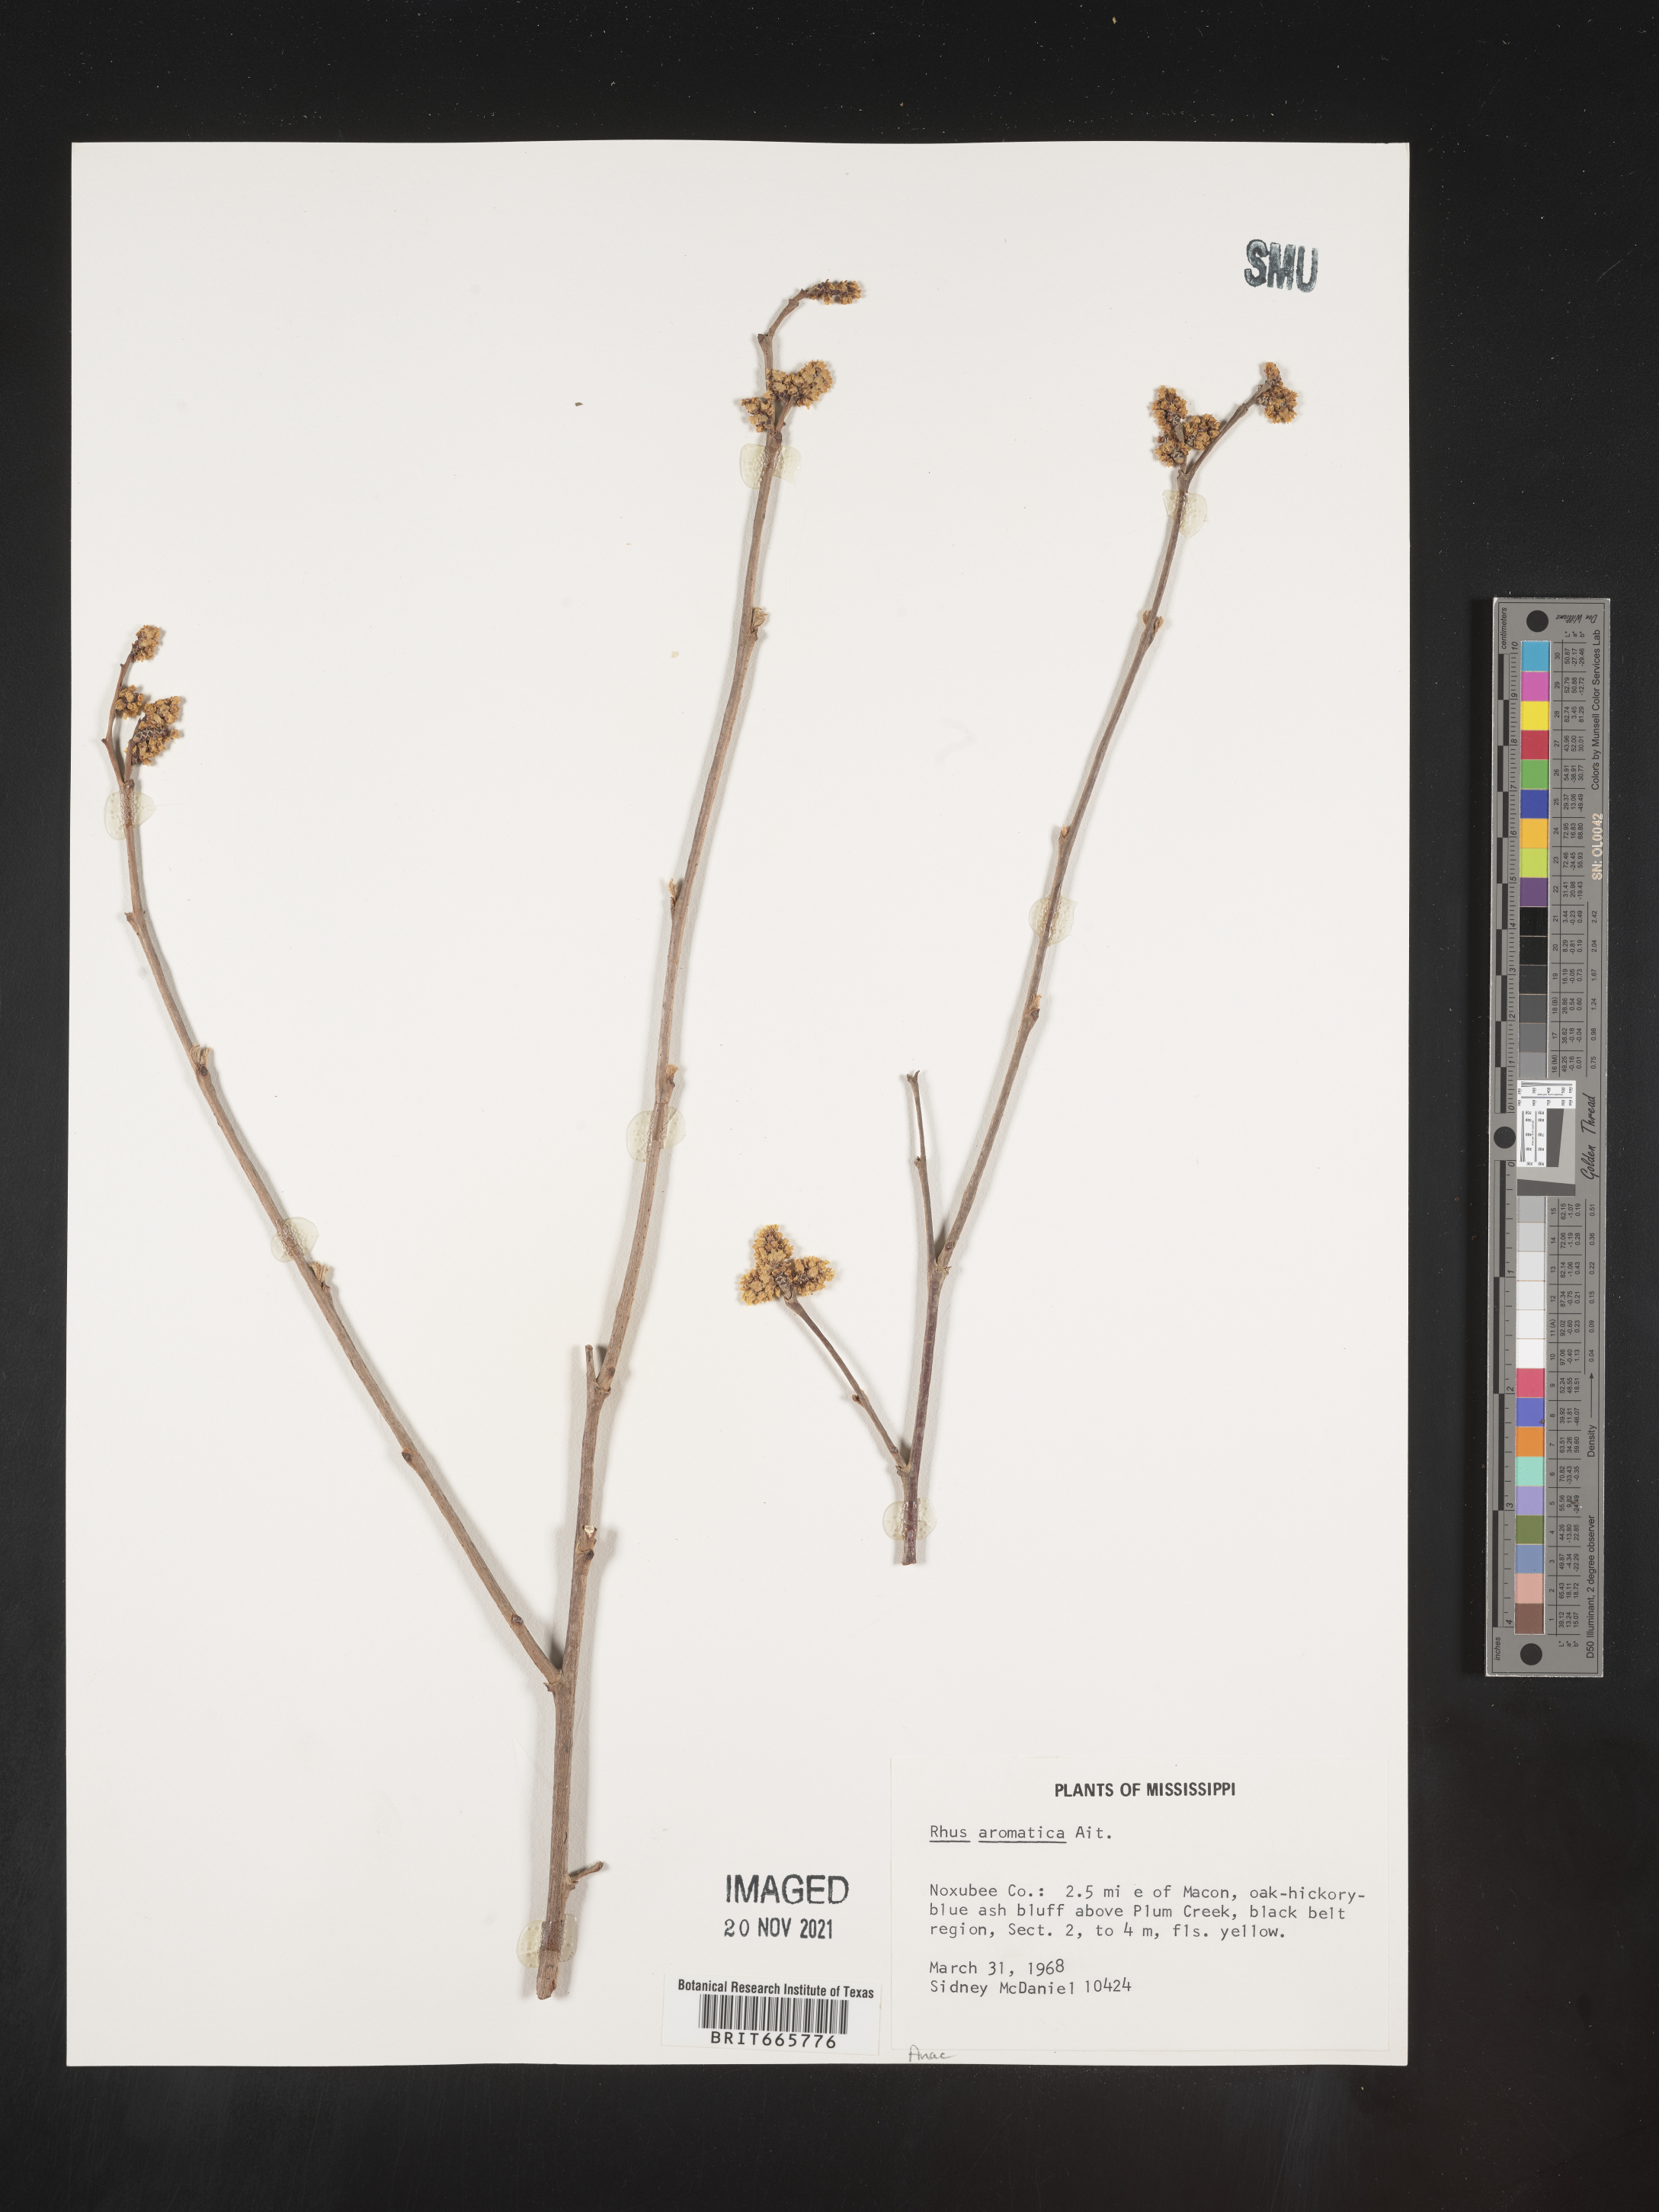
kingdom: Plantae
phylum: Tracheophyta
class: Magnoliopsida
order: Sapindales
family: Anacardiaceae
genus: Rhus
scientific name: Rhus aromatica
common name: Aromatic sumac
